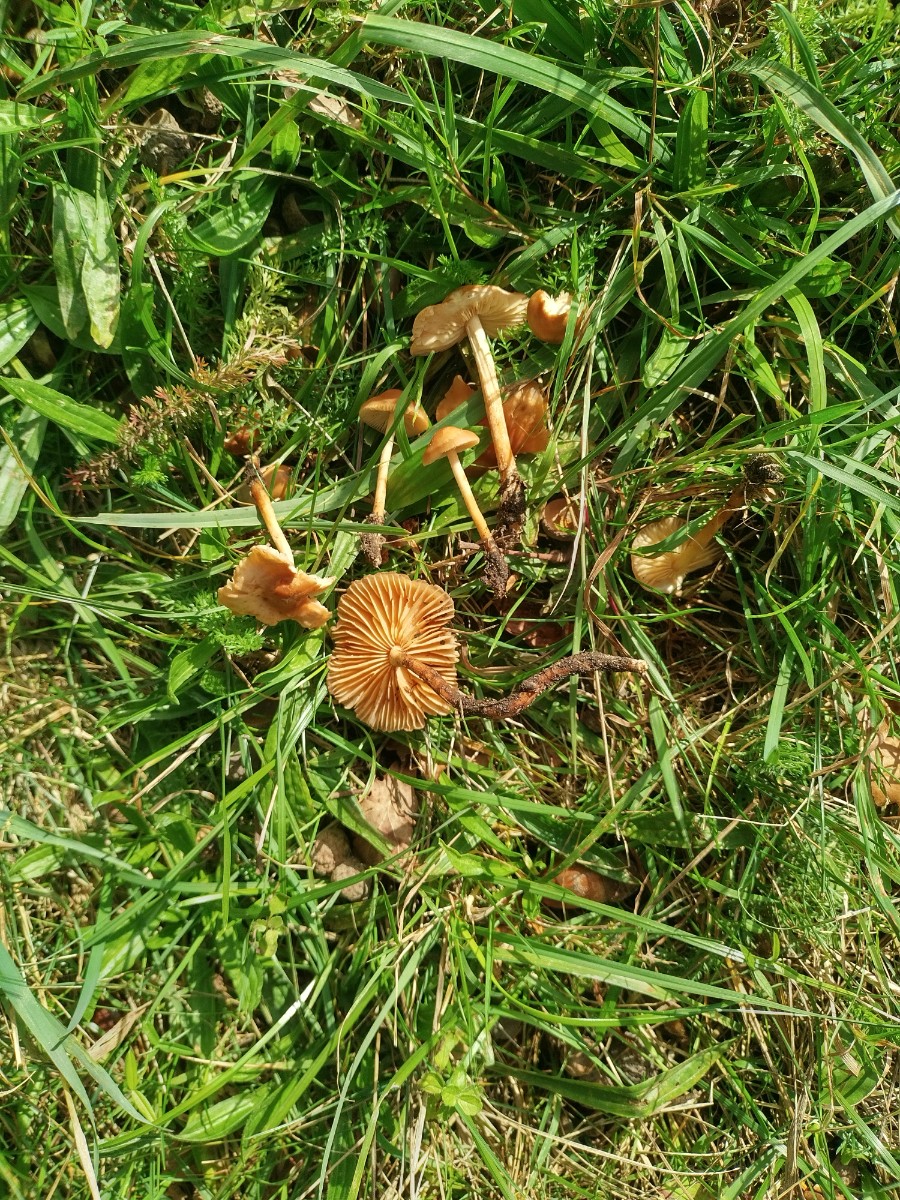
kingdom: Fungi
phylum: Basidiomycota
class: Agaricomycetes
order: Agaricales
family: Marasmiaceae
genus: Marasmius
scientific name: Marasmius oreades
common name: elledans-bruskhat
